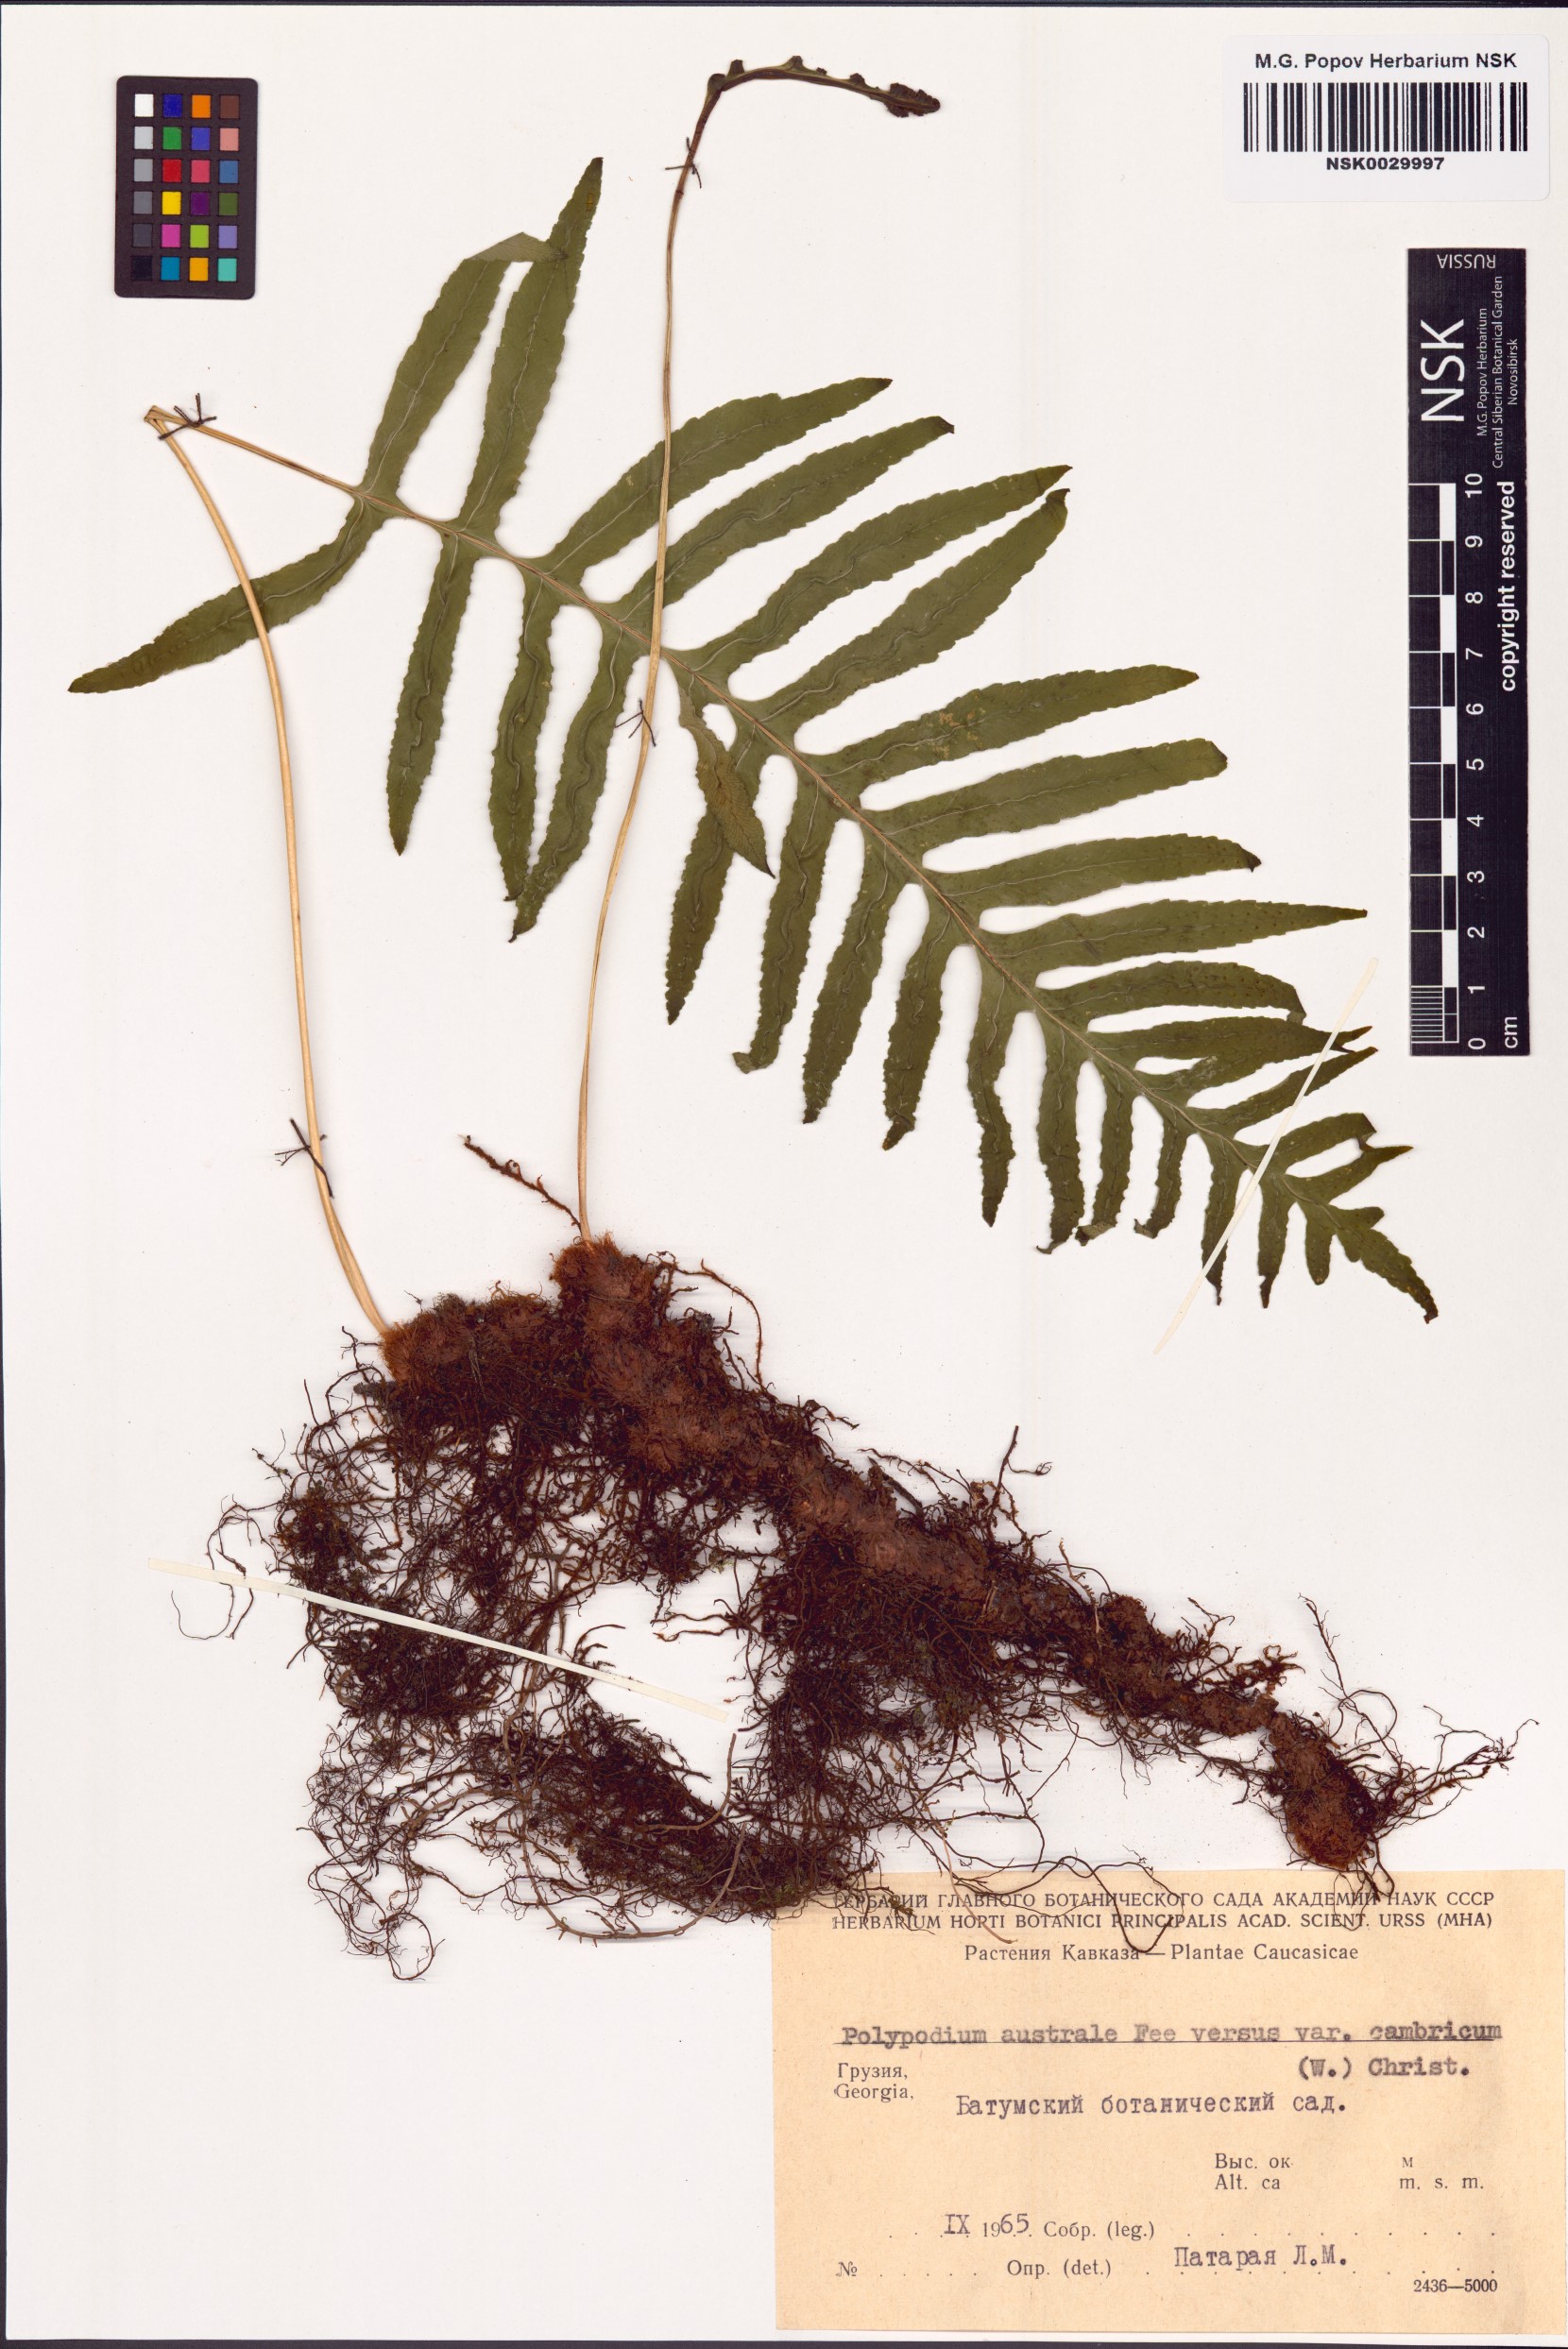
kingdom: Plantae
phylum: Tracheophyta
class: Polypodiopsida
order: Polypodiales
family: Polypodiaceae
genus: Polypodium
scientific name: Polypodium cambricum
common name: Southern polypody
